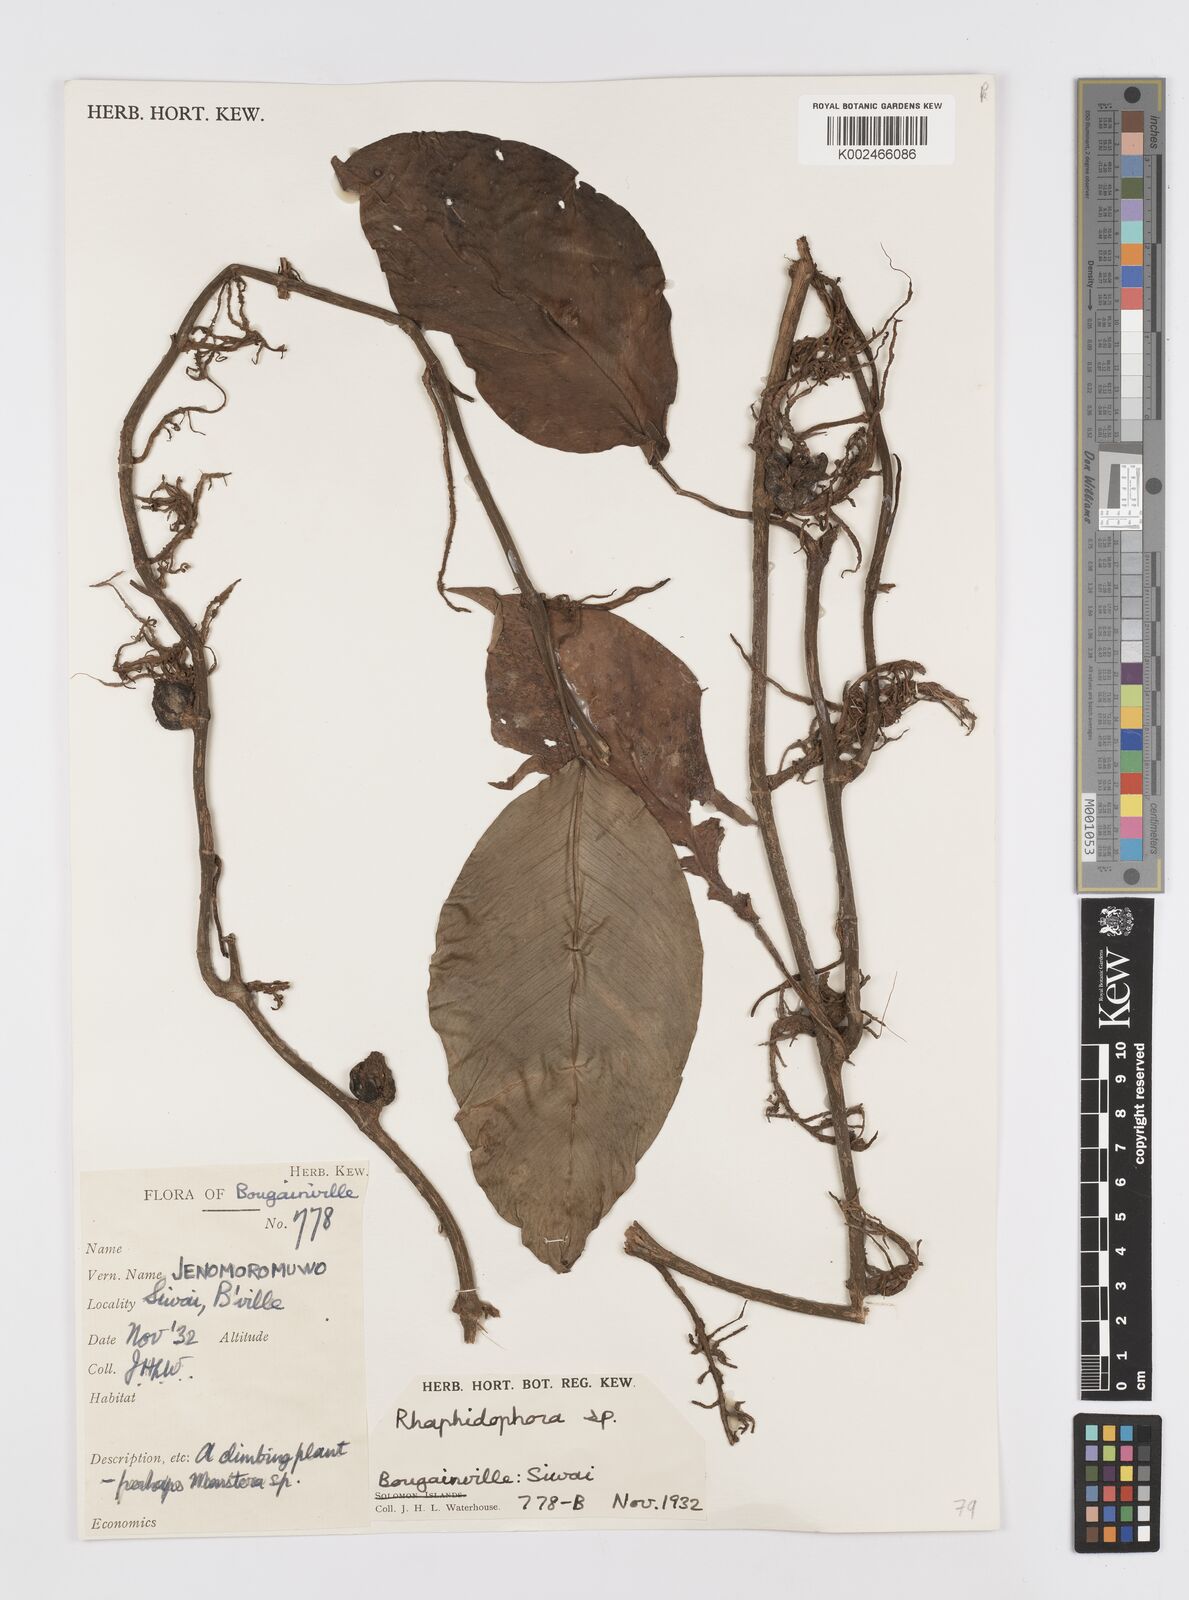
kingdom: Plantae
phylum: Tracheophyta
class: Liliopsida
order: Alismatales
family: Araceae
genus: Rhaphidophora
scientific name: Rhaphidophora mima
